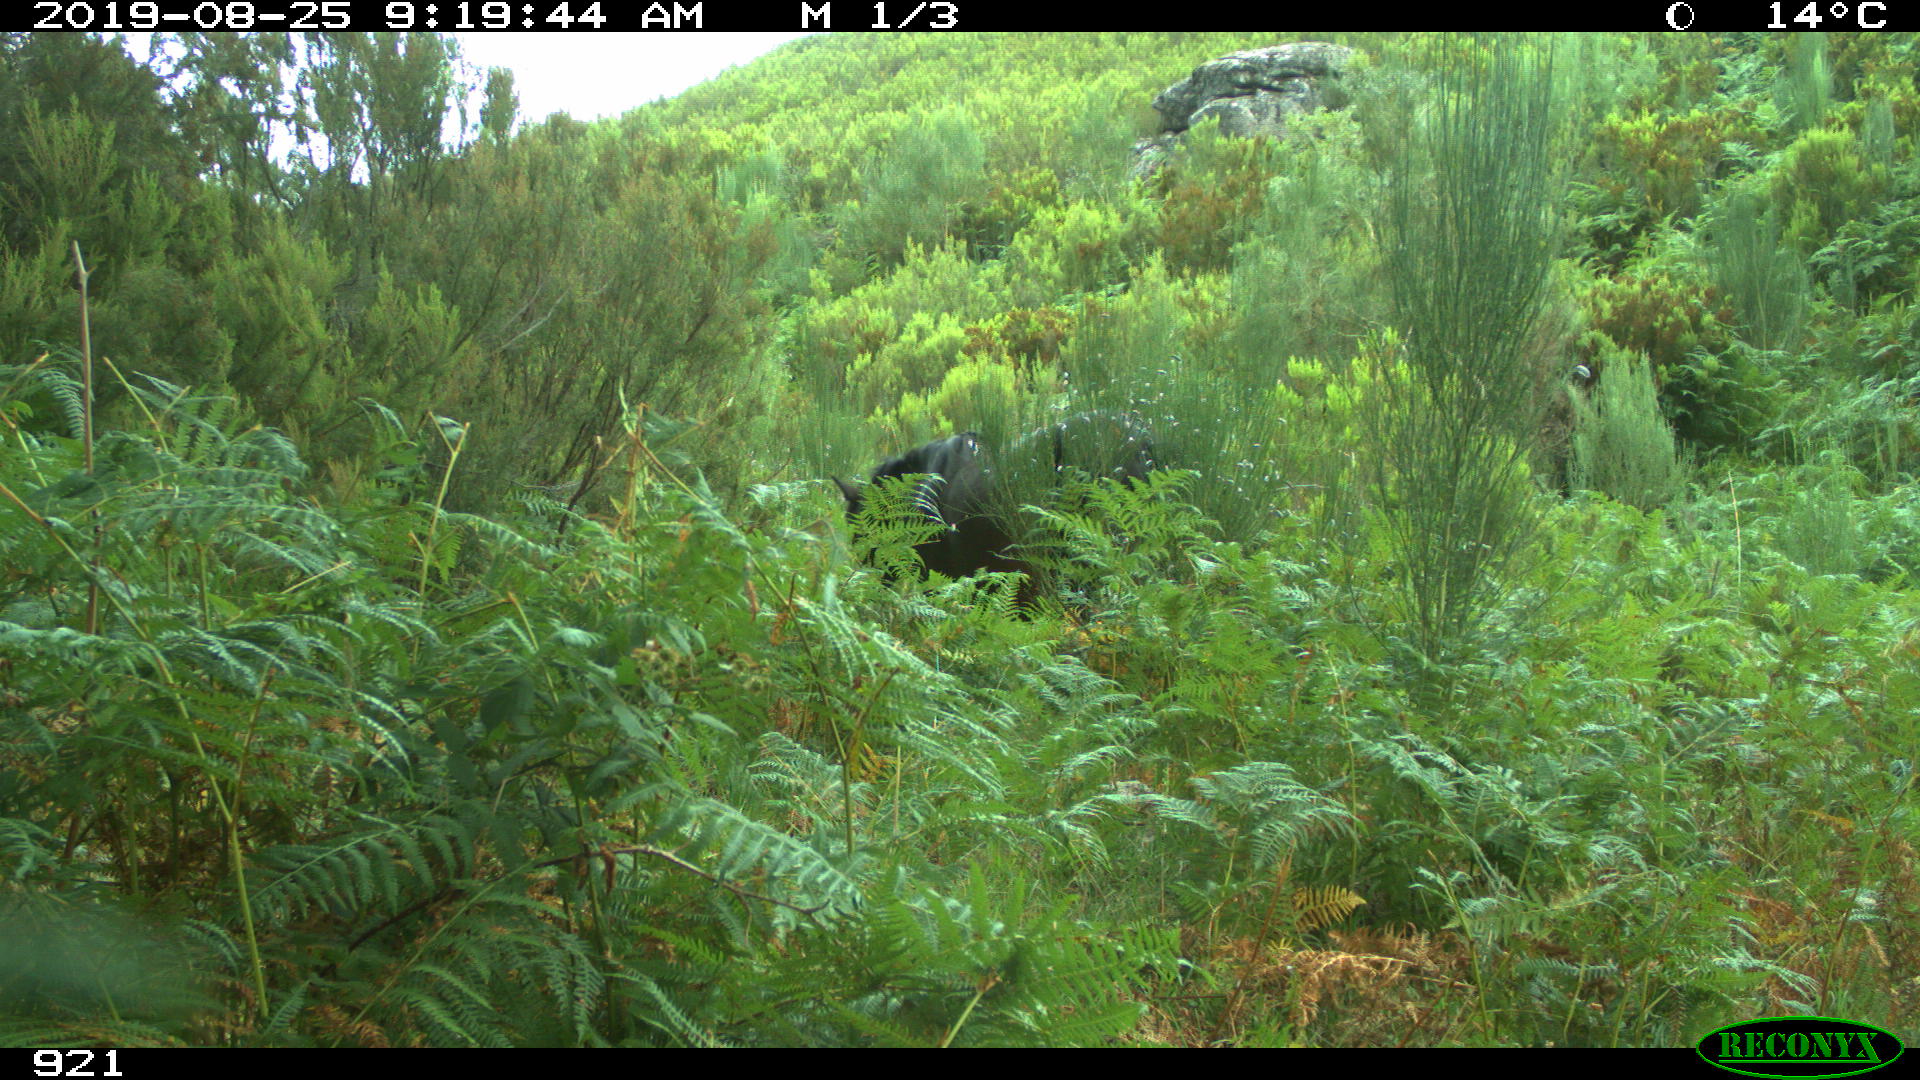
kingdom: Animalia
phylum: Chordata
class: Mammalia
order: Perissodactyla
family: Equidae
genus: Equus
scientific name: Equus caballus
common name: Horse
